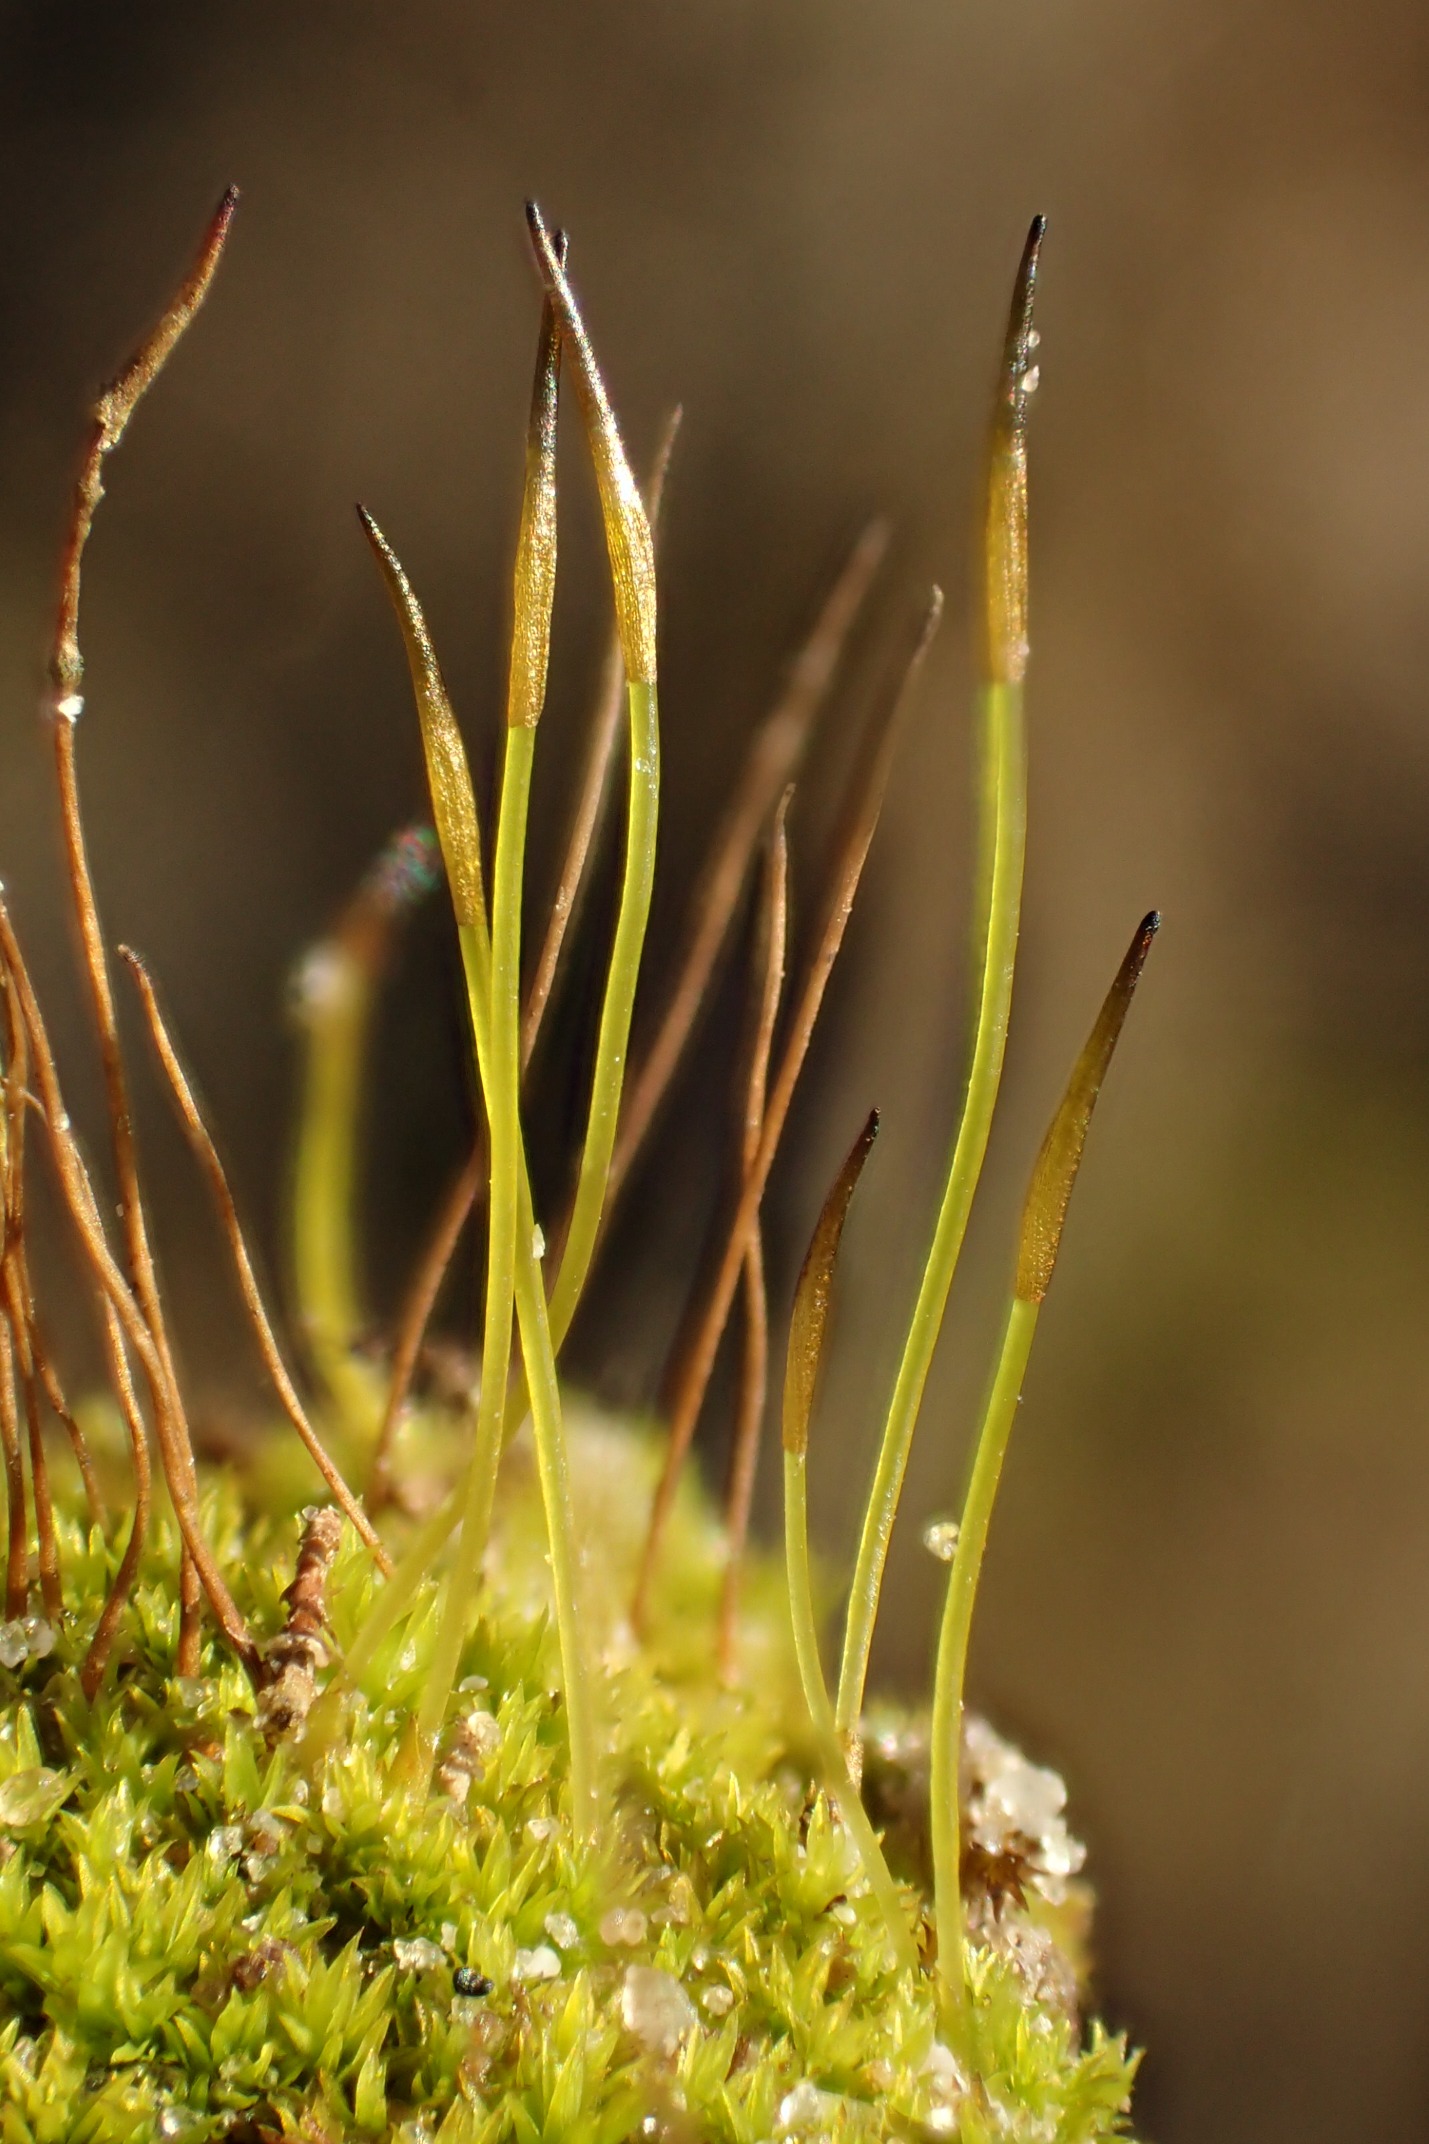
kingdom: Plantae
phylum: Bryophyta
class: Bryopsida
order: Pottiales
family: Pottiaceae
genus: Streblotrichum
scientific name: Streblotrichum convolutum
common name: Violet snohår
